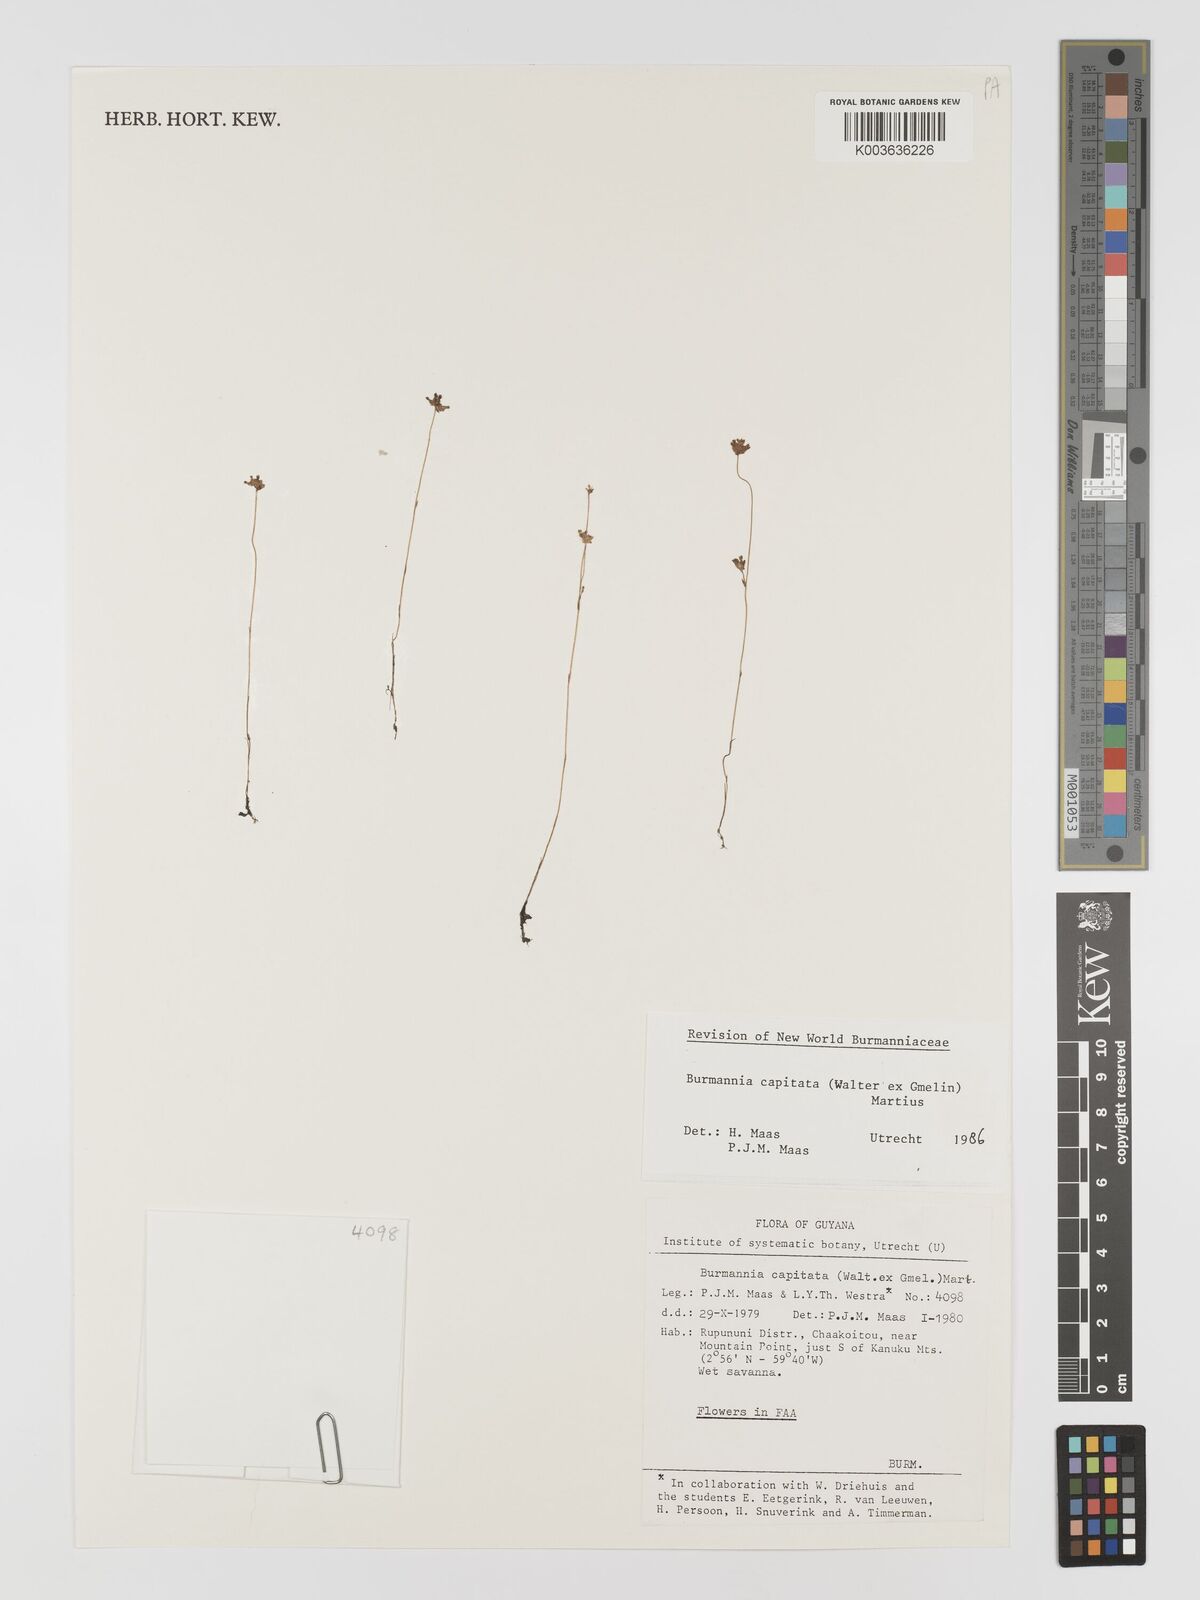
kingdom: Plantae
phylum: Tracheophyta
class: Liliopsida
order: Dioscoreales
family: Burmanniaceae
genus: Burmannia
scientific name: Burmannia capitata
